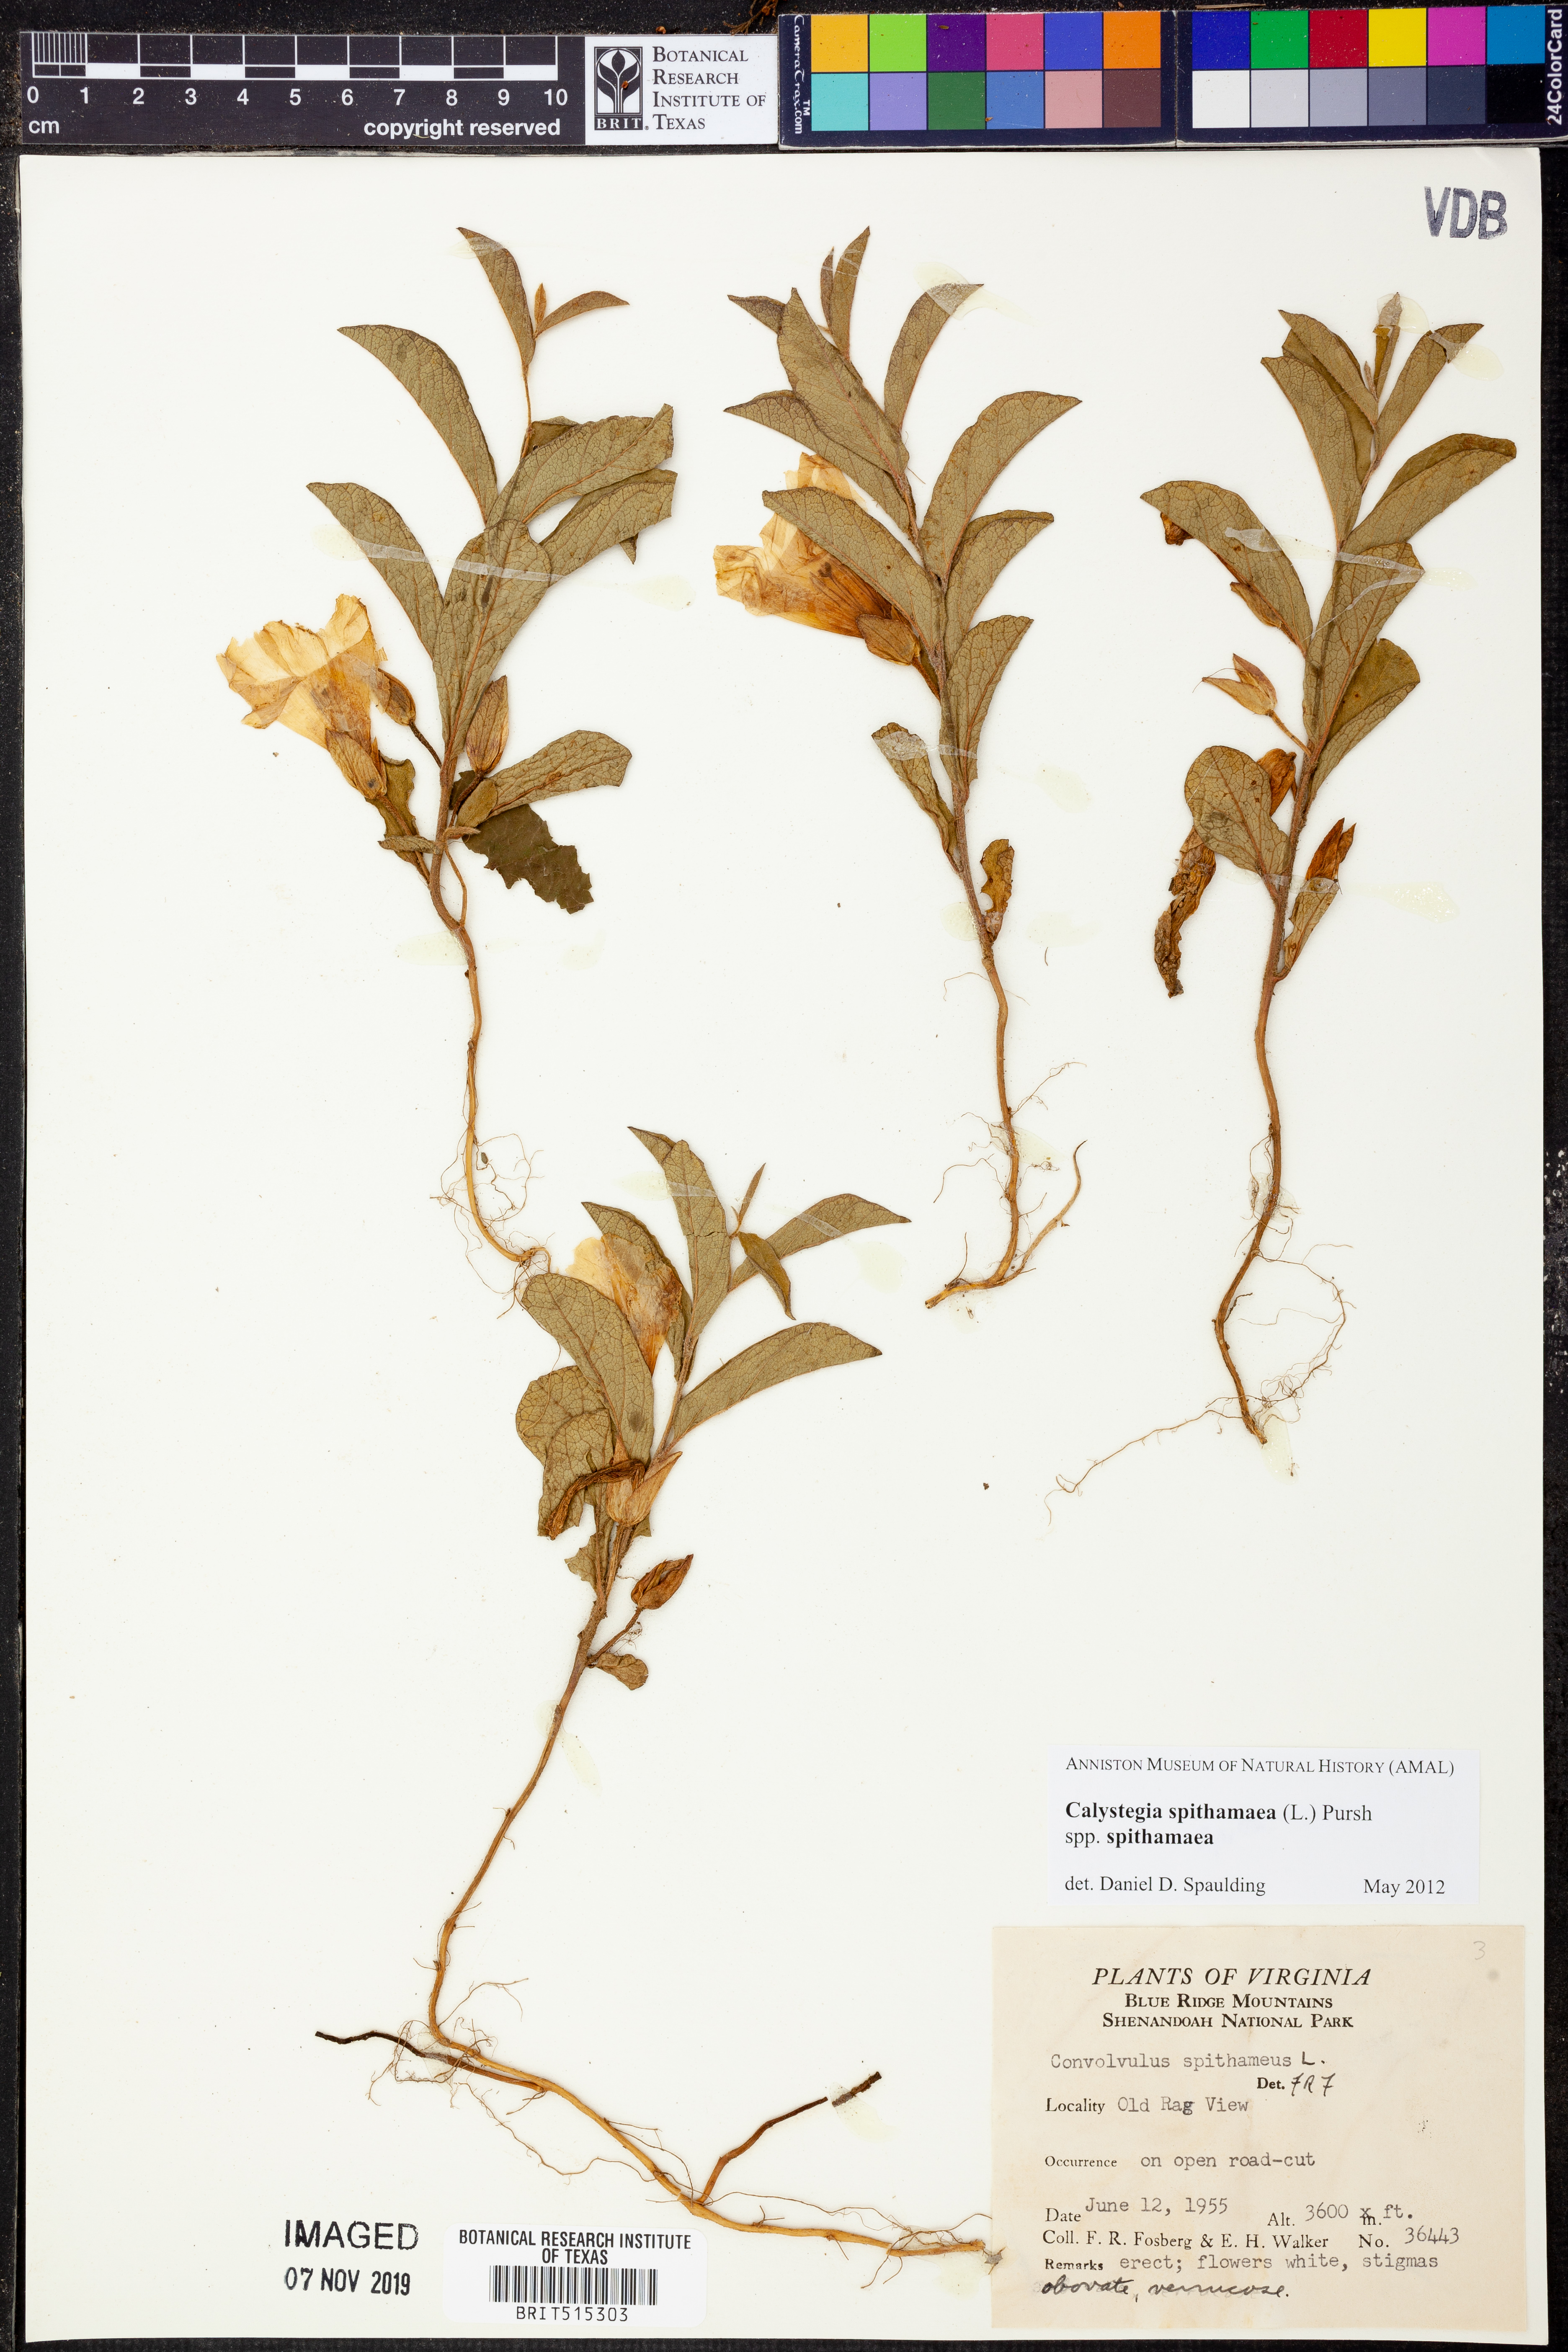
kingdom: Plantae
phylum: Tracheophyta
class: Magnoliopsida
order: Solanales
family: Convolvulaceae
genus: Calystegia
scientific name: Calystegia spithamaea
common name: Dwarf bindweed
